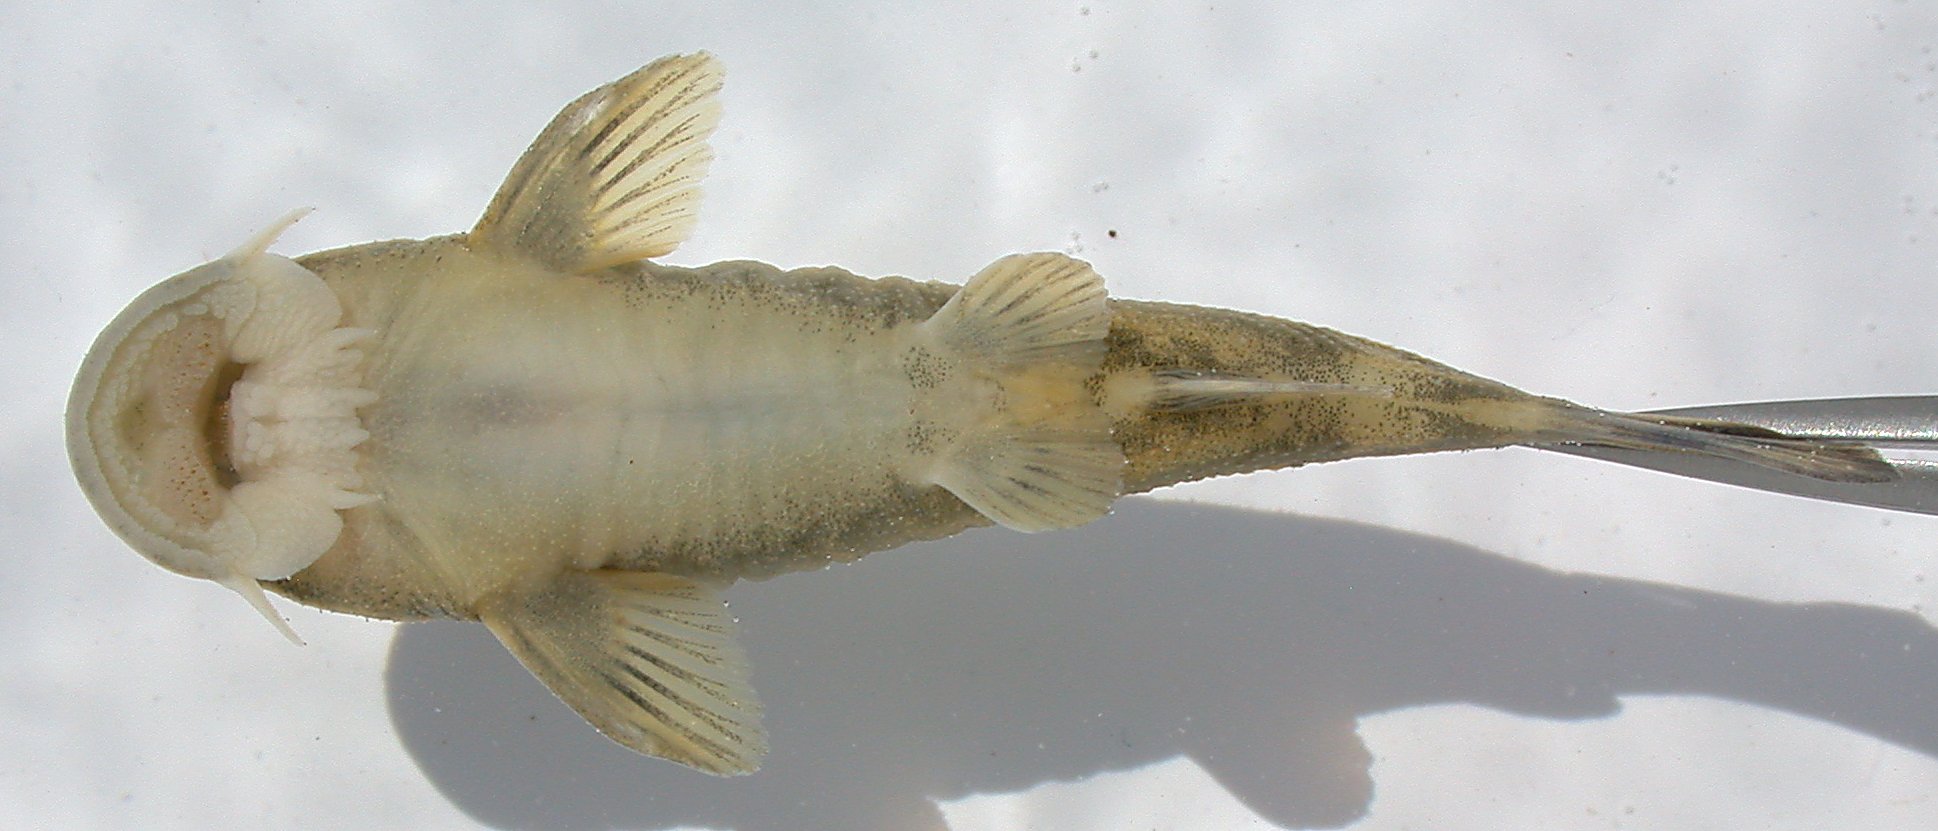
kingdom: Animalia
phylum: Chordata
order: Siluriformes
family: Mochokidae
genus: Chiloglanis
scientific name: Chiloglanis pretoriae
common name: Shortspine catlet
